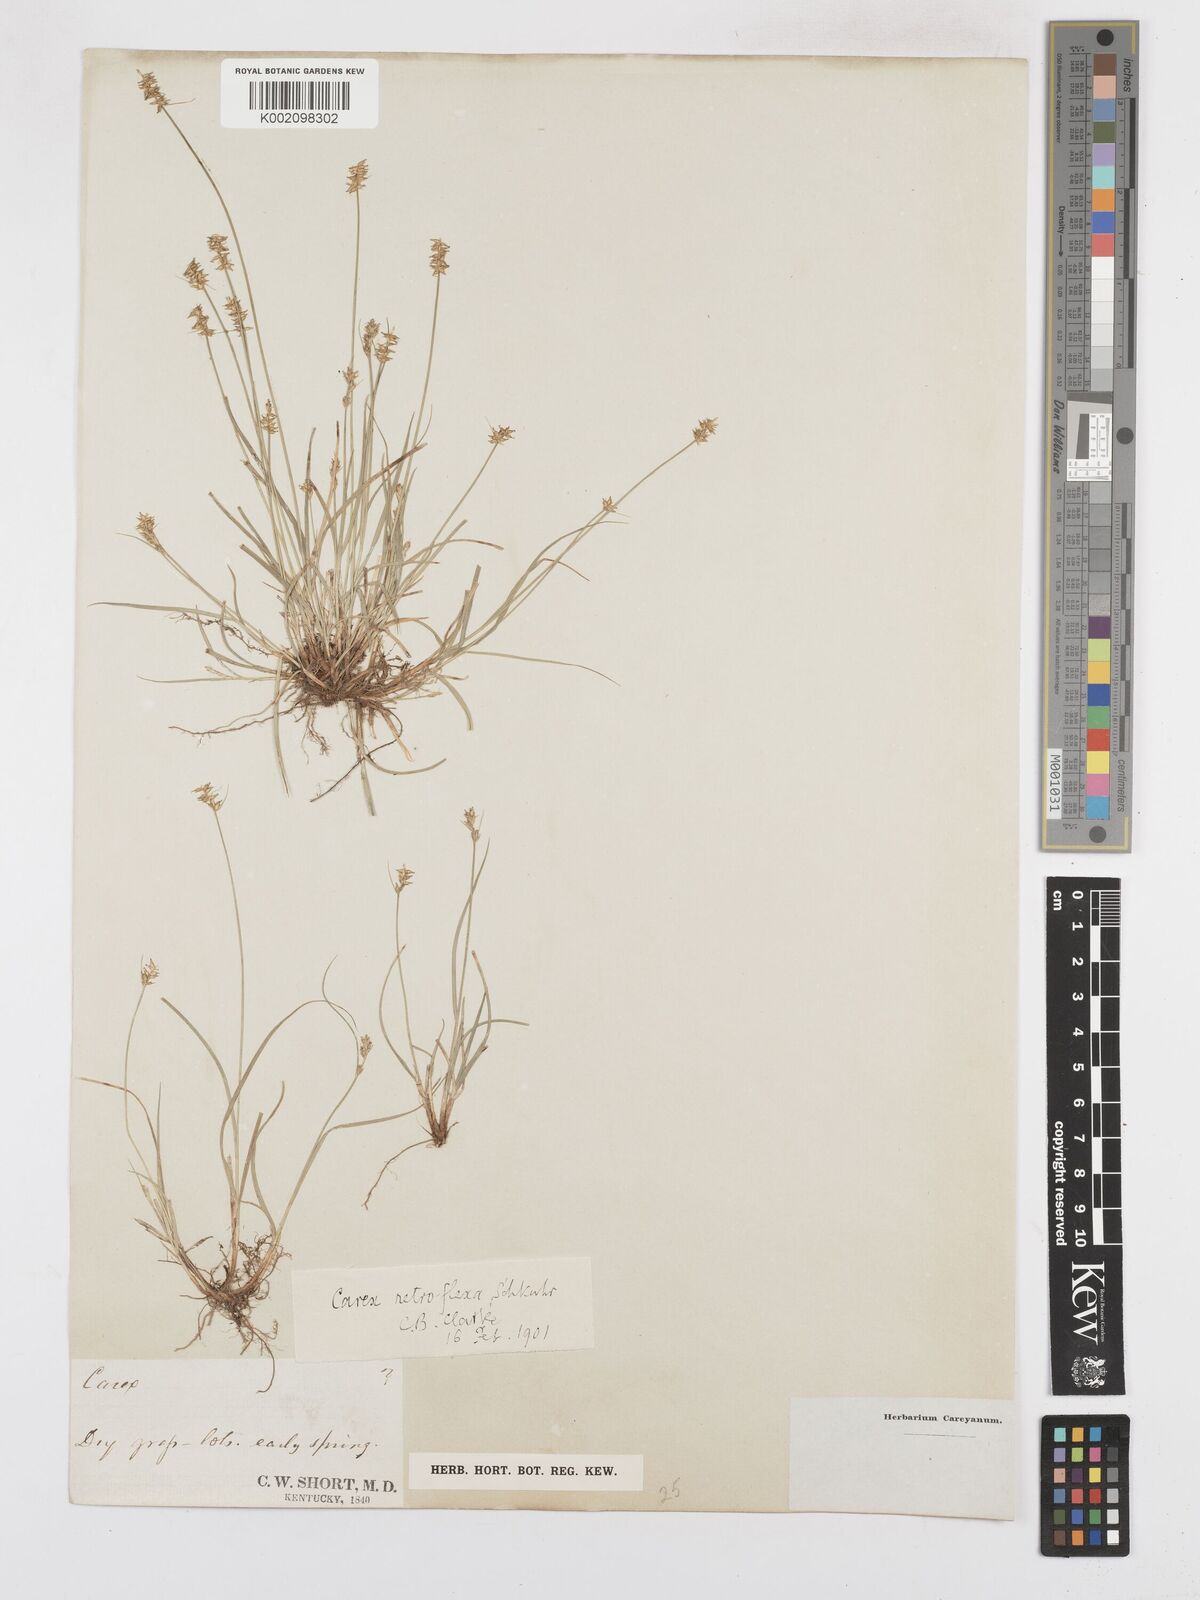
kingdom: Plantae
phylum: Tracheophyta
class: Liliopsida
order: Poales
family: Cyperaceae
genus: Carex
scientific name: Carex retroflexa
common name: Reflexed sedge
